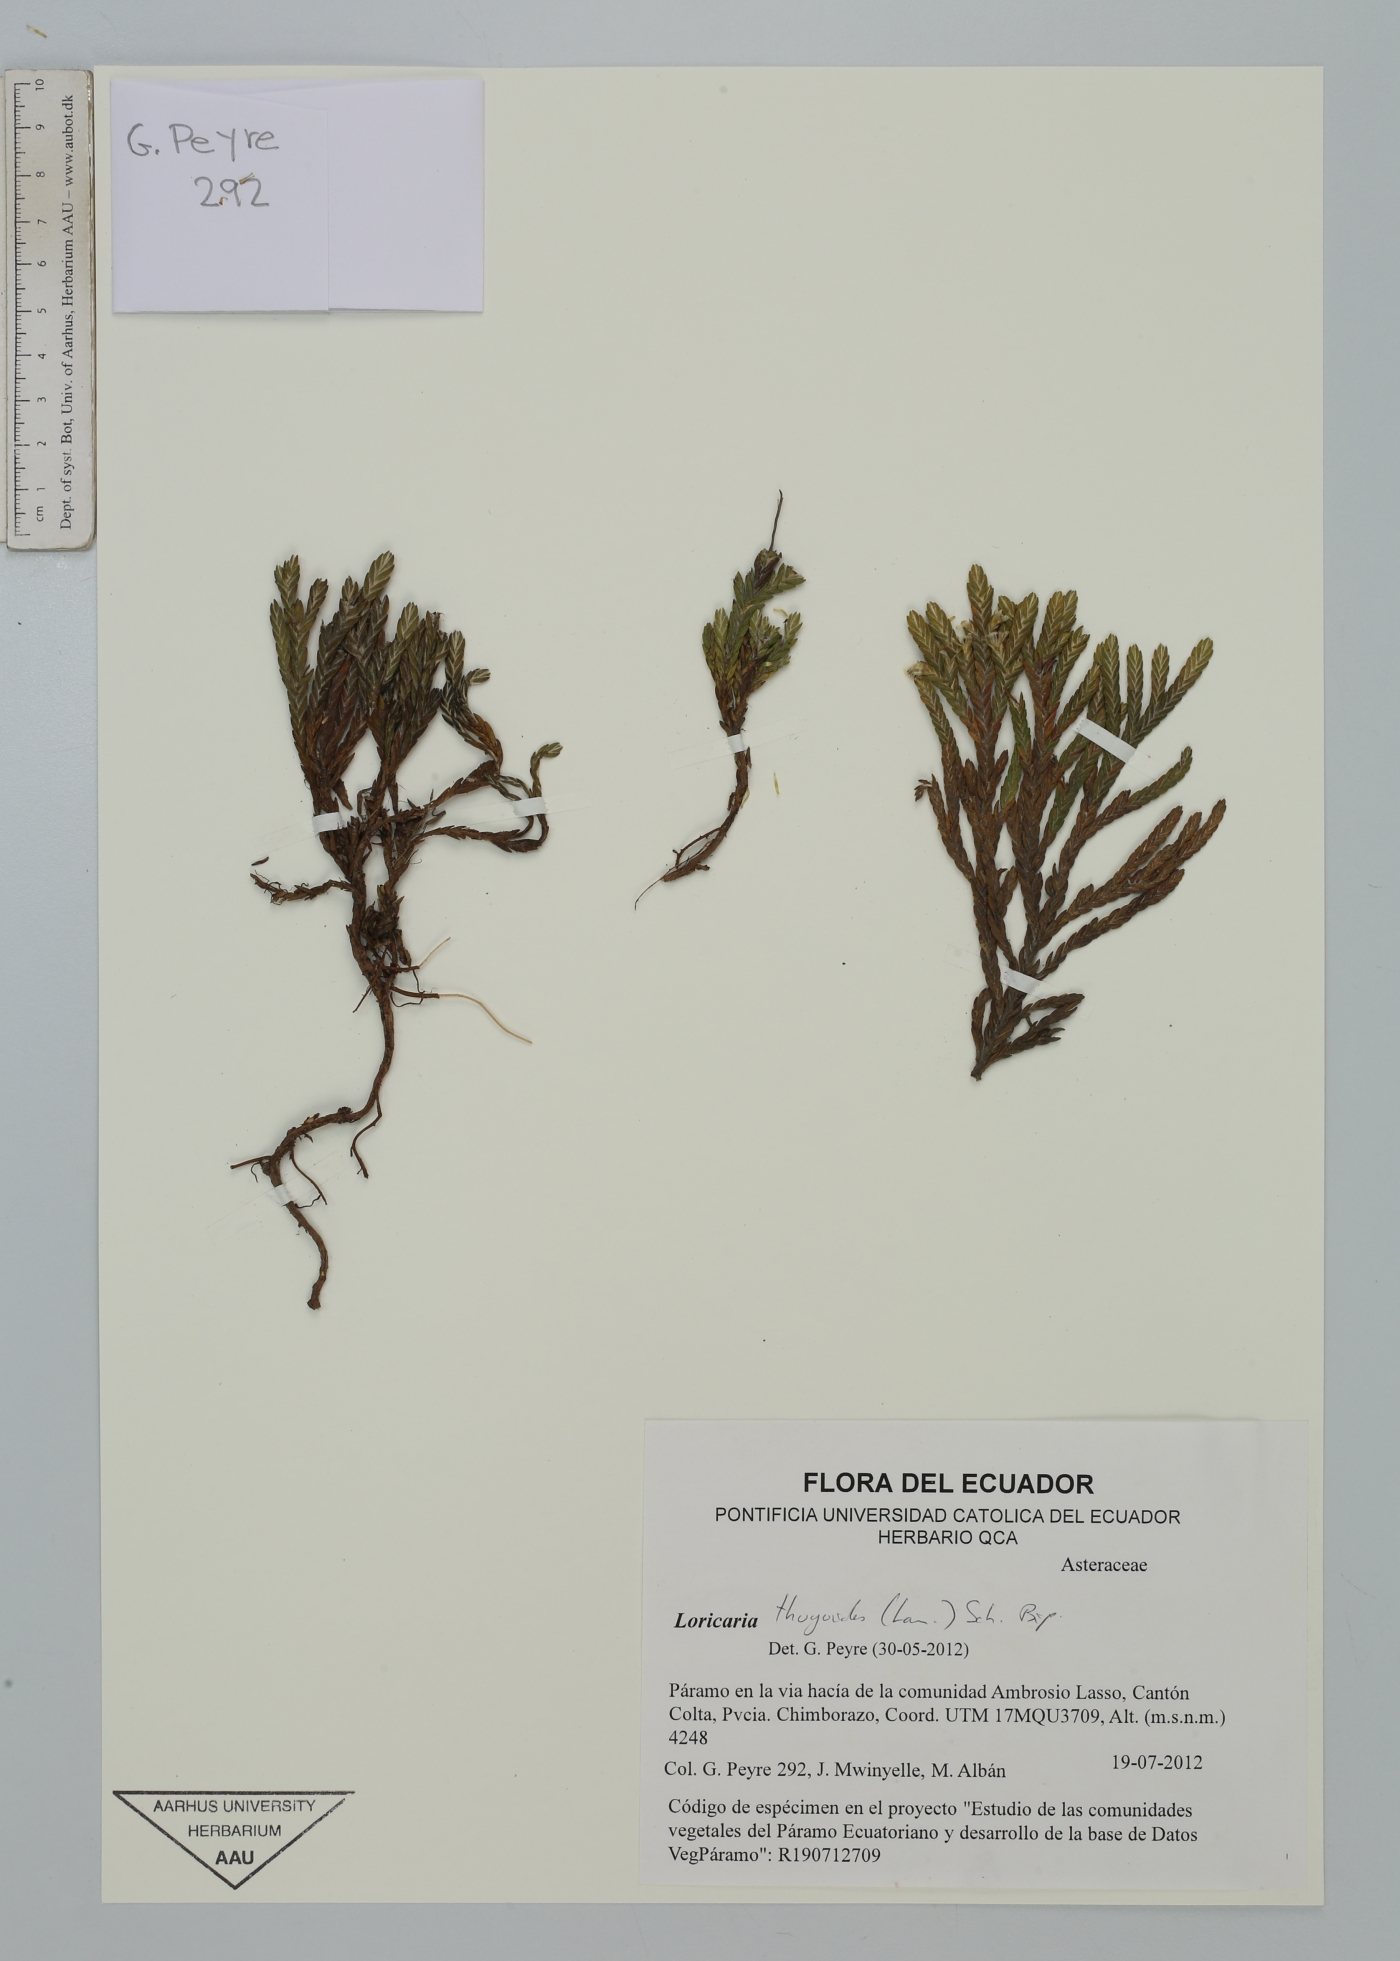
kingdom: Plantae
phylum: Tracheophyta
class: Magnoliopsida
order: Asterales
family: Asteraceae
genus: Andicolea
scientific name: Andicolea thuyoides
